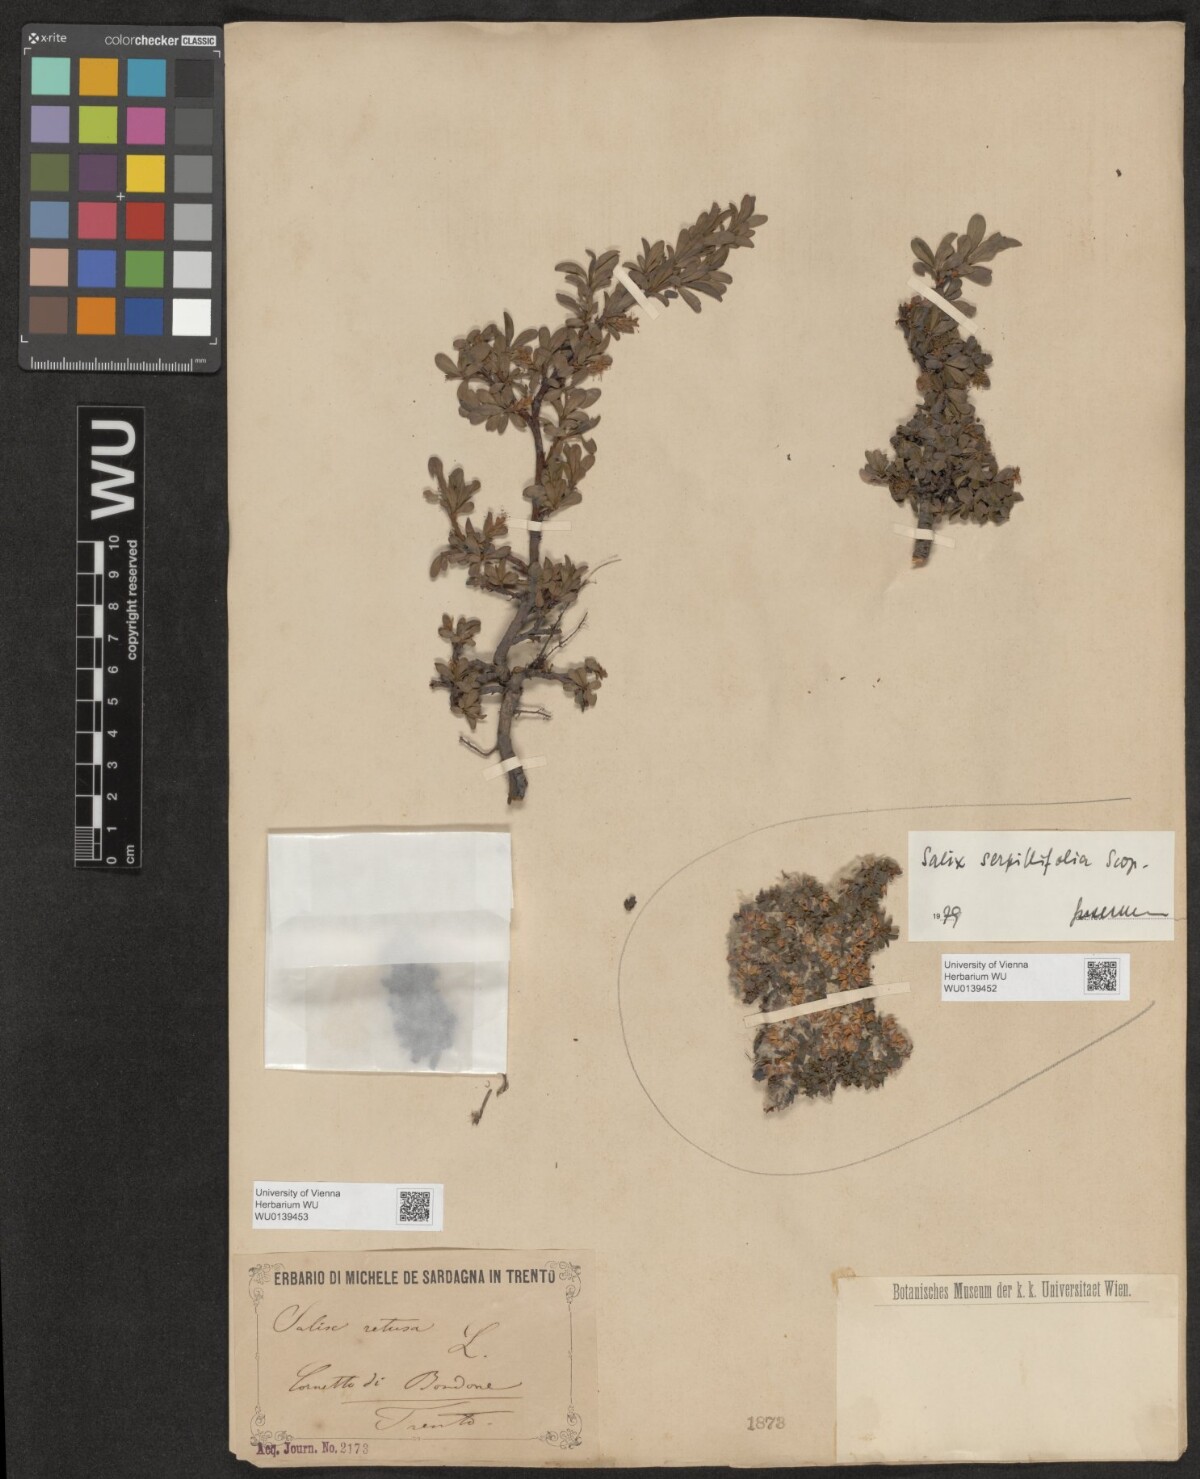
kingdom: Plantae
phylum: Tracheophyta
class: Magnoliopsida
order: Malpighiales
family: Salicaceae
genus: Salix
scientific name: Salix retusa
